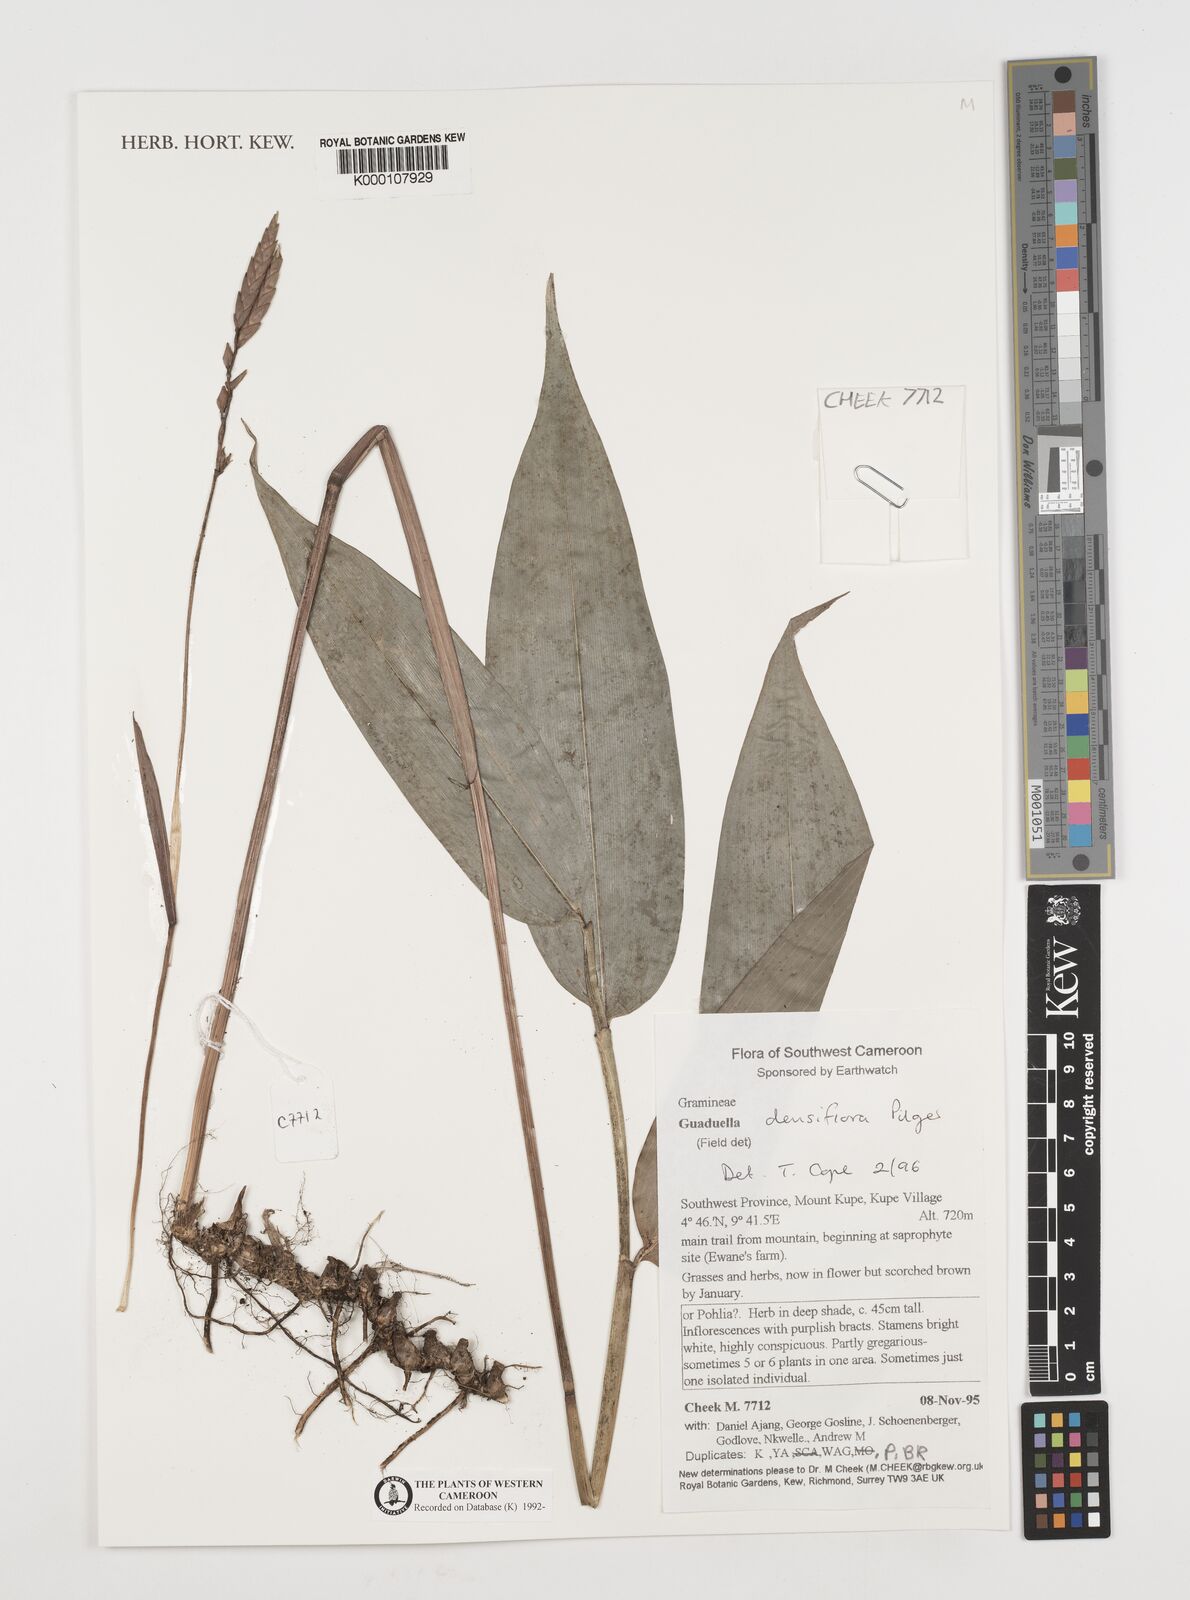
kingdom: Plantae
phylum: Tracheophyta
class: Liliopsida
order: Poales
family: Poaceae
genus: Guaduella
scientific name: Guaduella densiflora
